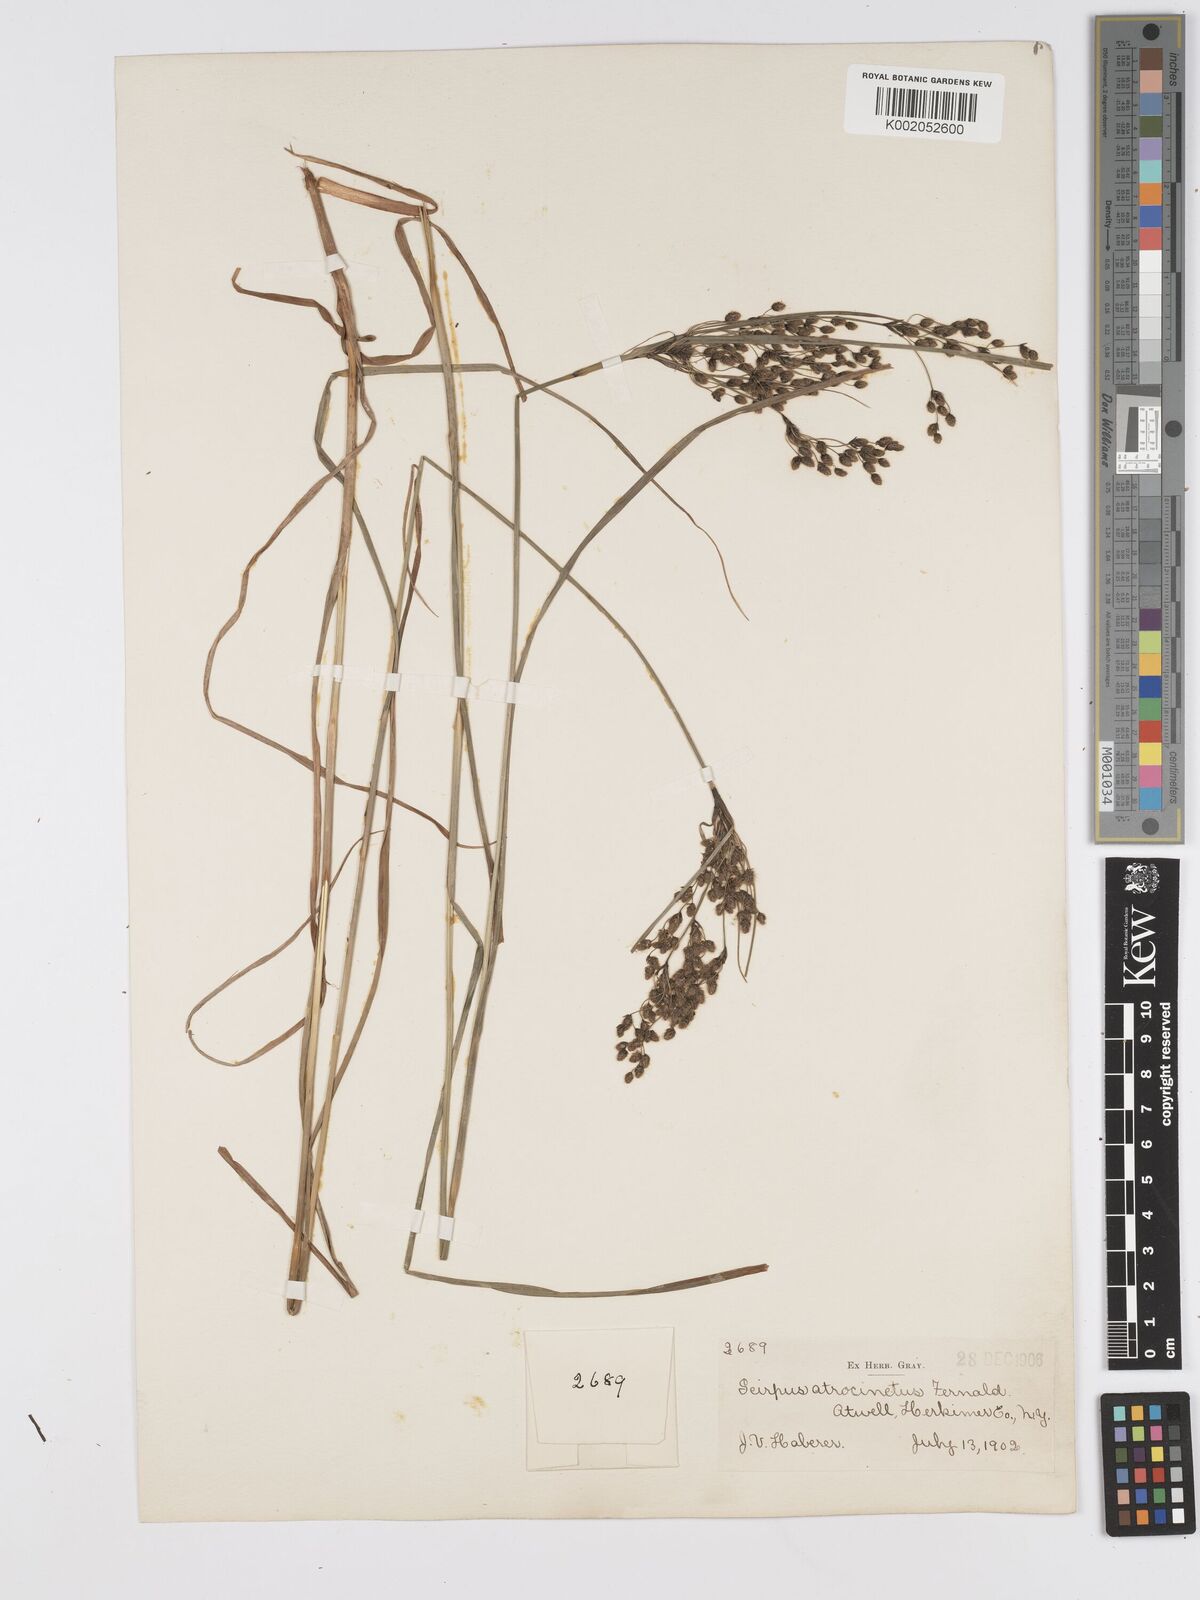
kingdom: Plantae
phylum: Tracheophyta
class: Liliopsida
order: Poales
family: Cyperaceae
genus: Scirpus
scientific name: Scirpus atrocinctus
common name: Black-girdled bulrush
